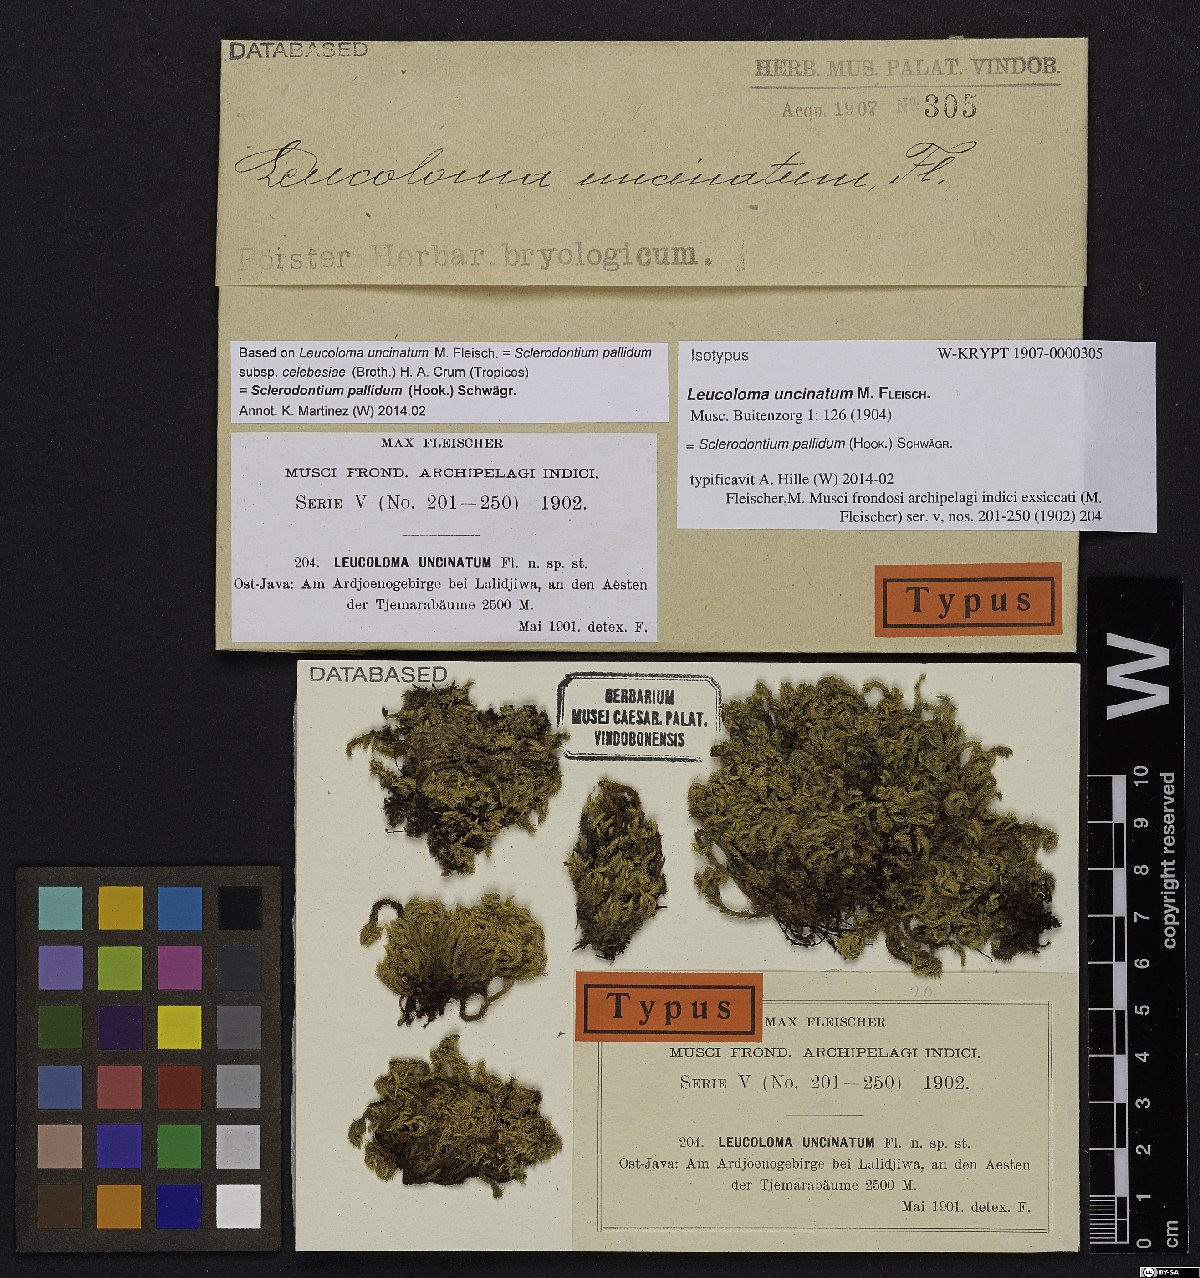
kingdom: Plantae
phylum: Bryophyta
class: Bryopsida
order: Dicranales
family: Dicranaceae
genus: Sclerodontium
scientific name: Sclerodontium pallidum
